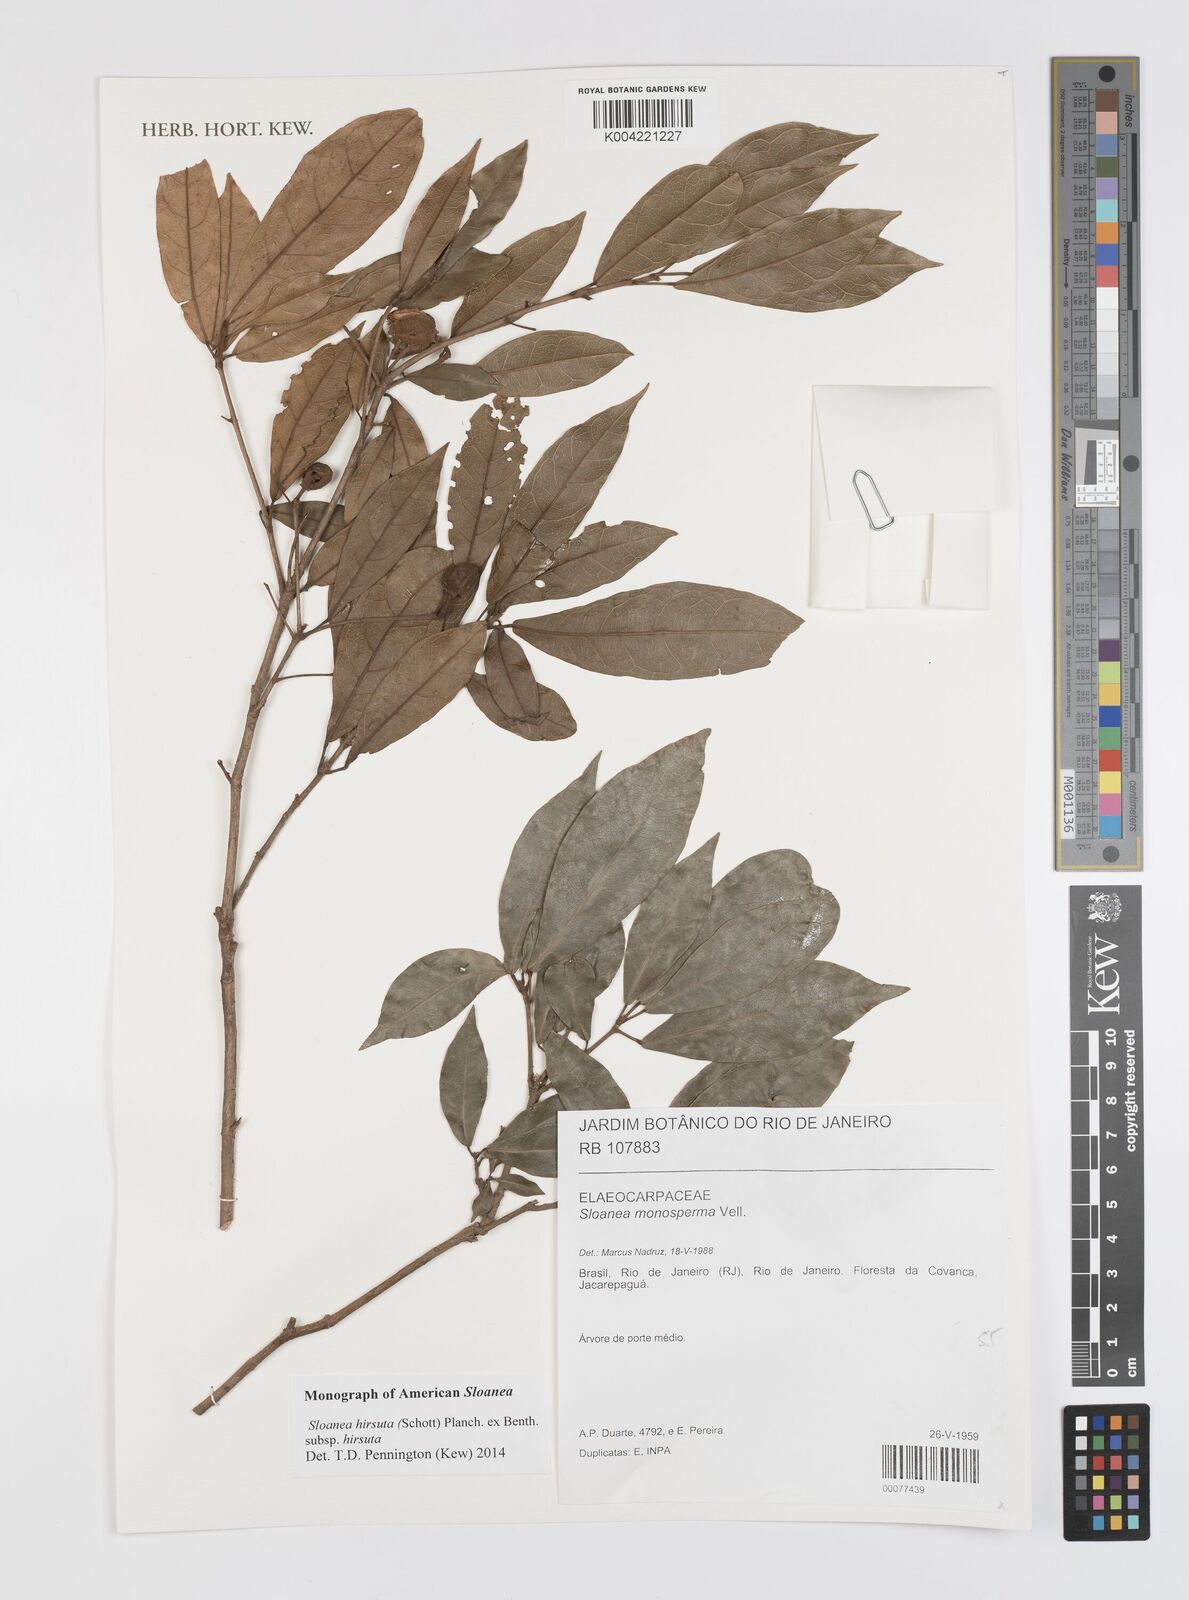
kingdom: Plantae
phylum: Tracheophyta
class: Magnoliopsida
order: Oxalidales
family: Elaeocarpaceae
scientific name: Elaeocarpaceae
